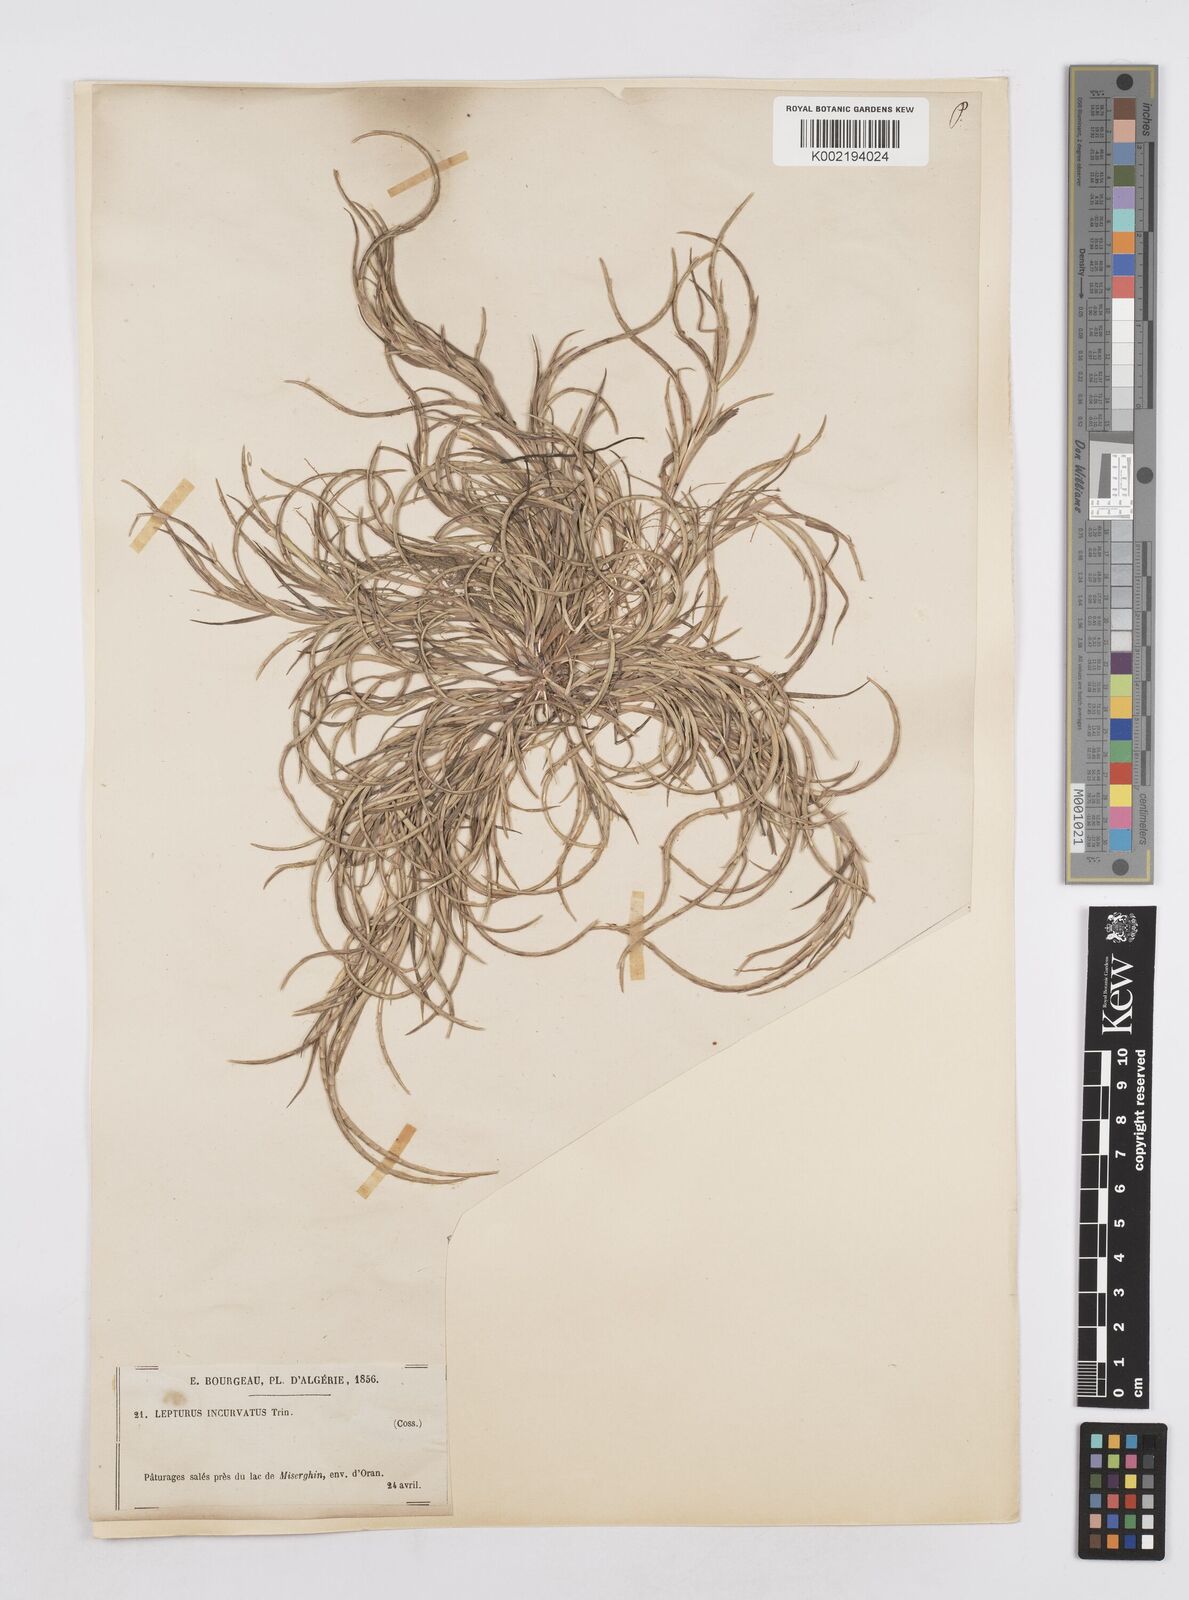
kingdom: Plantae
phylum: Tracheophyta
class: Liliopsida
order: Poales
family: Poaceae
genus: Parapholis
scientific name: Parapholis incurva
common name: Curved sicklegrass
